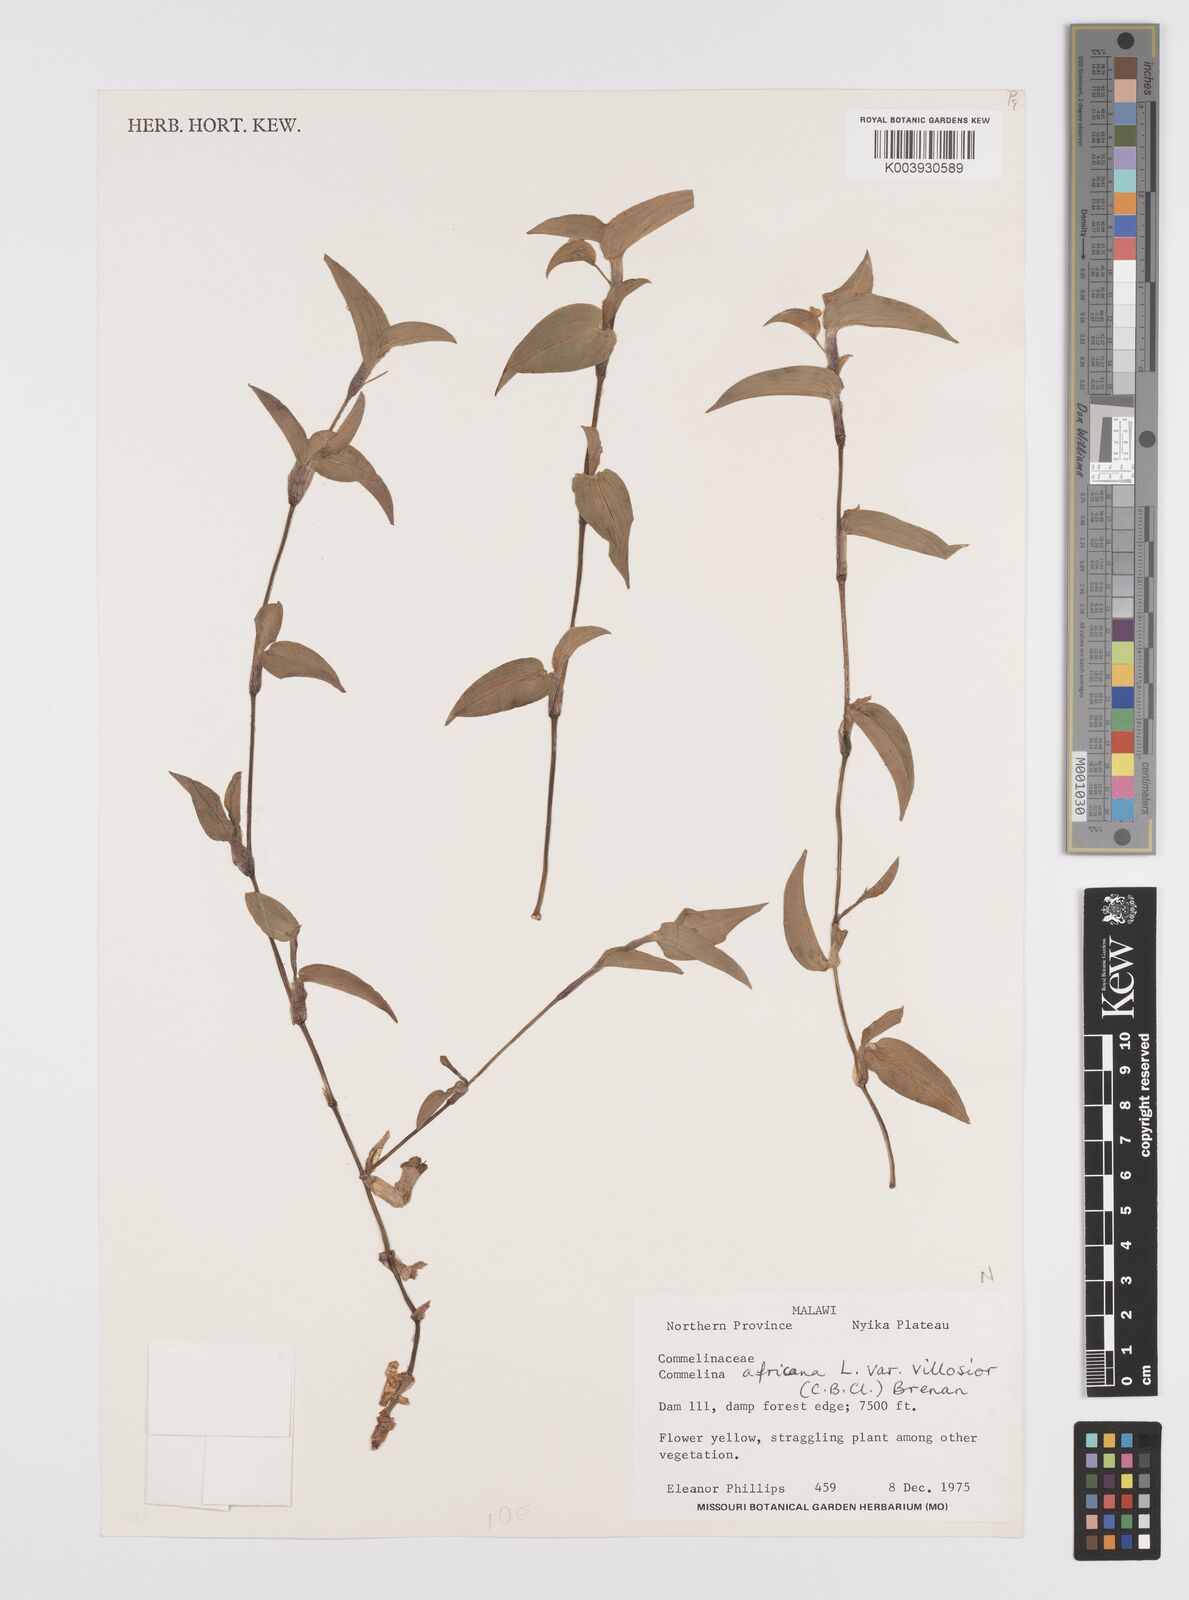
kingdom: Plantae
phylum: Tracheophyta
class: Liliopsida
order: Commelinales
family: Commelinaceae
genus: Commelina
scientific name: Commelina africana
